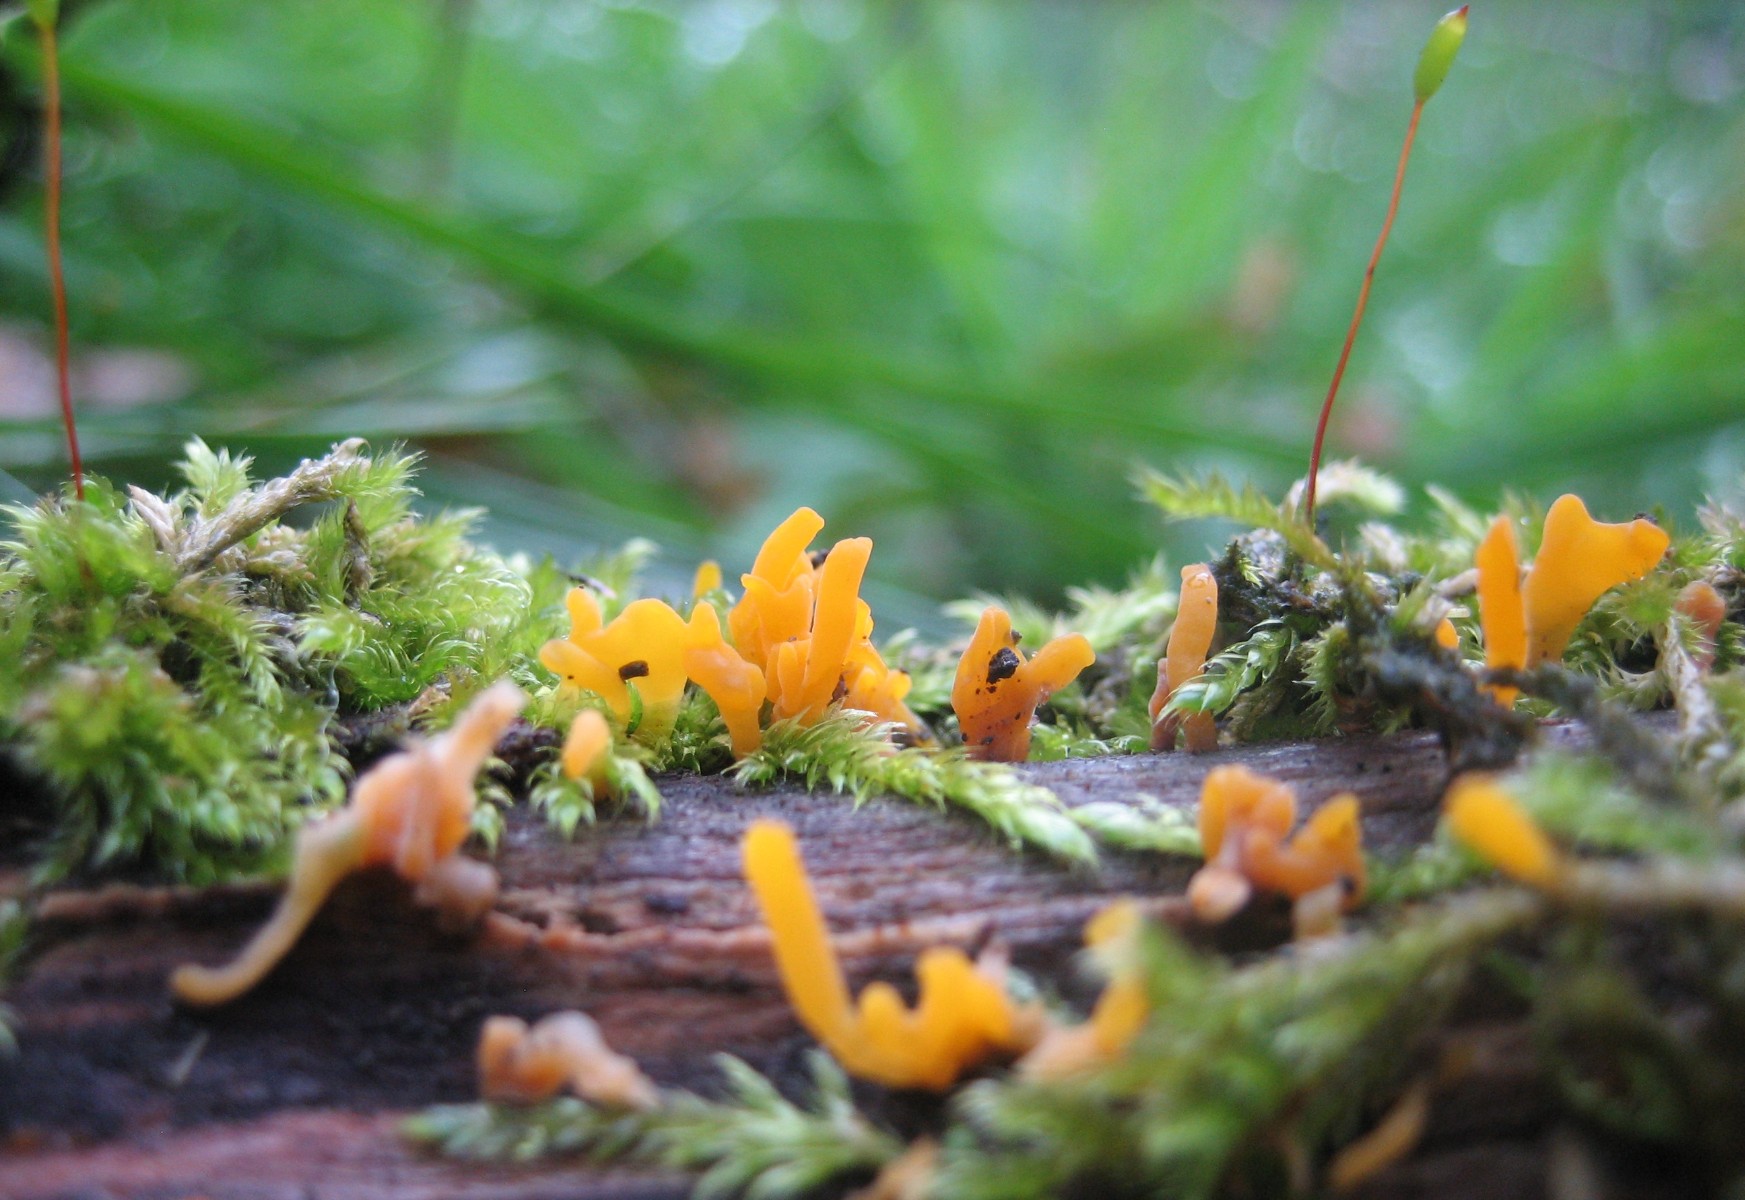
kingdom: Fungi
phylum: Basidiomycota
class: Dacrymycetes
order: Dacrymycetales
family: Dacrymycetaceae
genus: Calocera
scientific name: Calocera cornea
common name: liden guldgaffel
